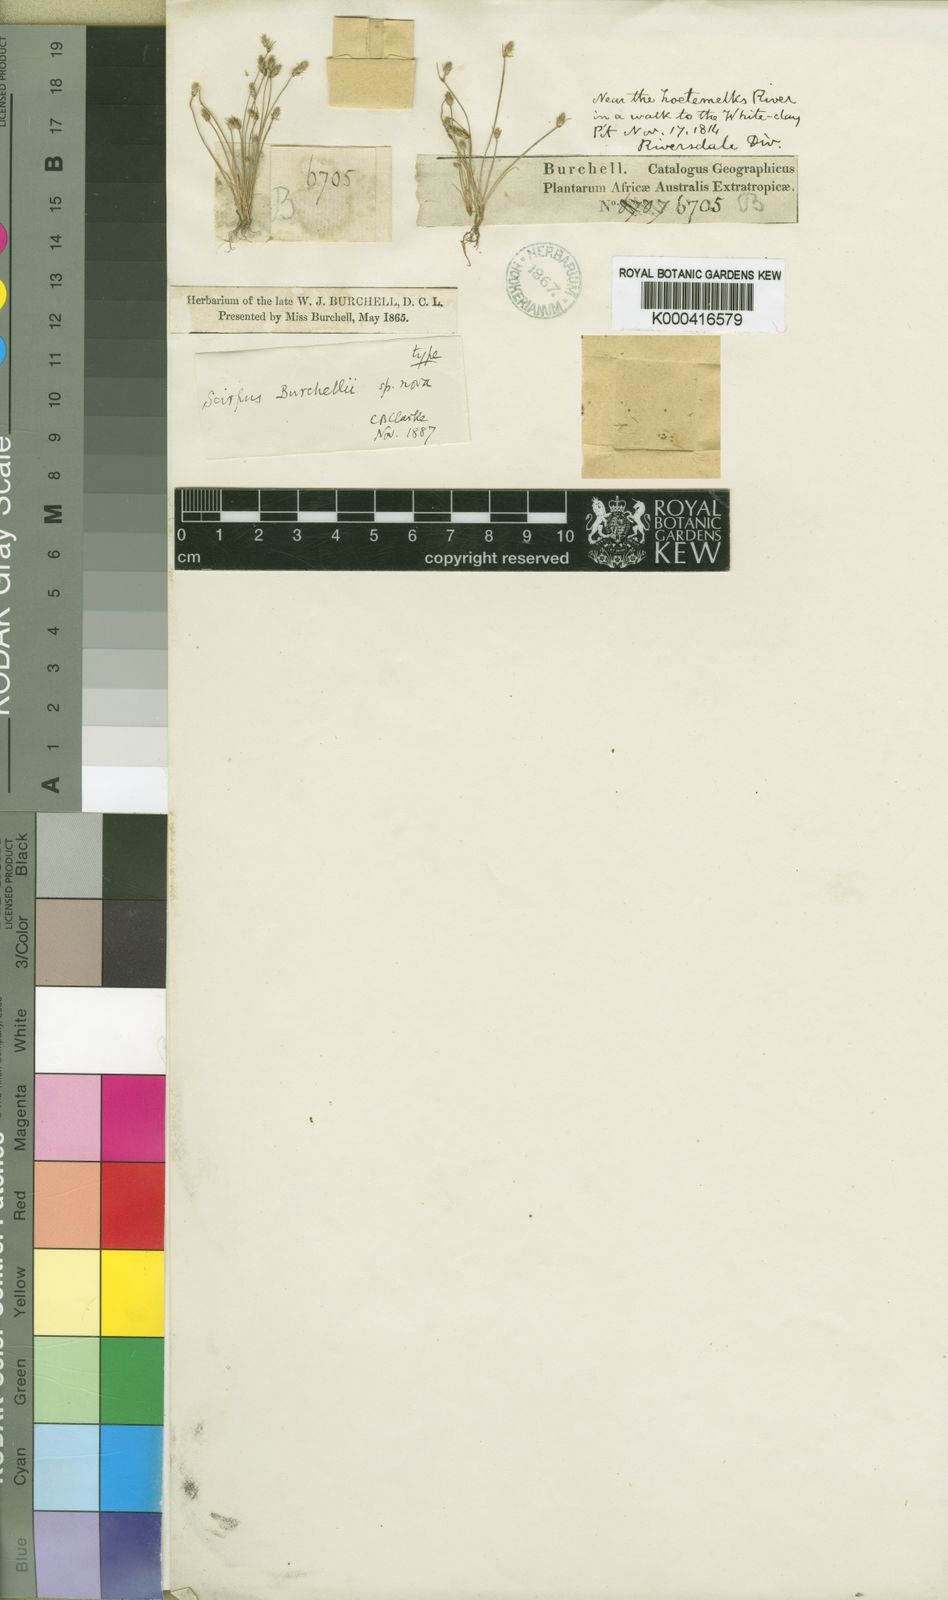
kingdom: Plantae
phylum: Tracheophyta
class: Liliopsida
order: Poales
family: Cyperaceae
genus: Isolepis
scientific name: Isolepis brevicaulis
